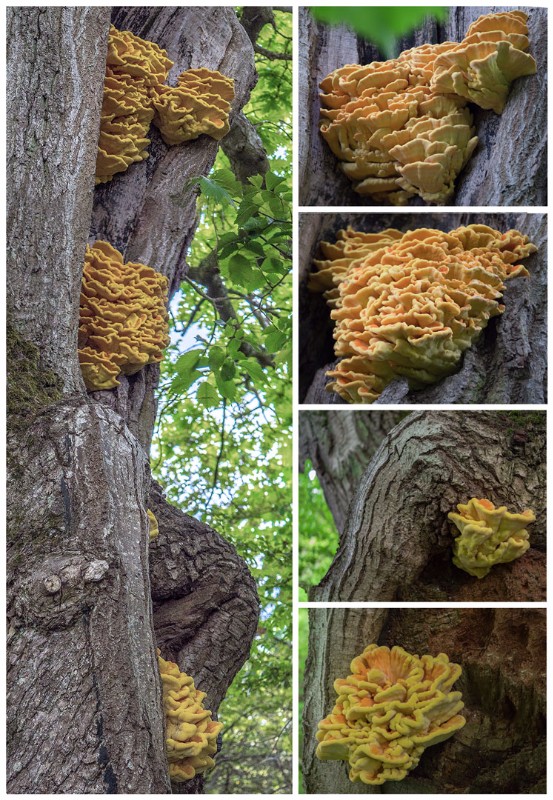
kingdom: Fungi
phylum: Basidiomycota
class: Agaricomycetes
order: Polyporales
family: Laetiporaceae
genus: Laetiporus
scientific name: Laetiporus sulphureus
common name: svovlporesvamp
